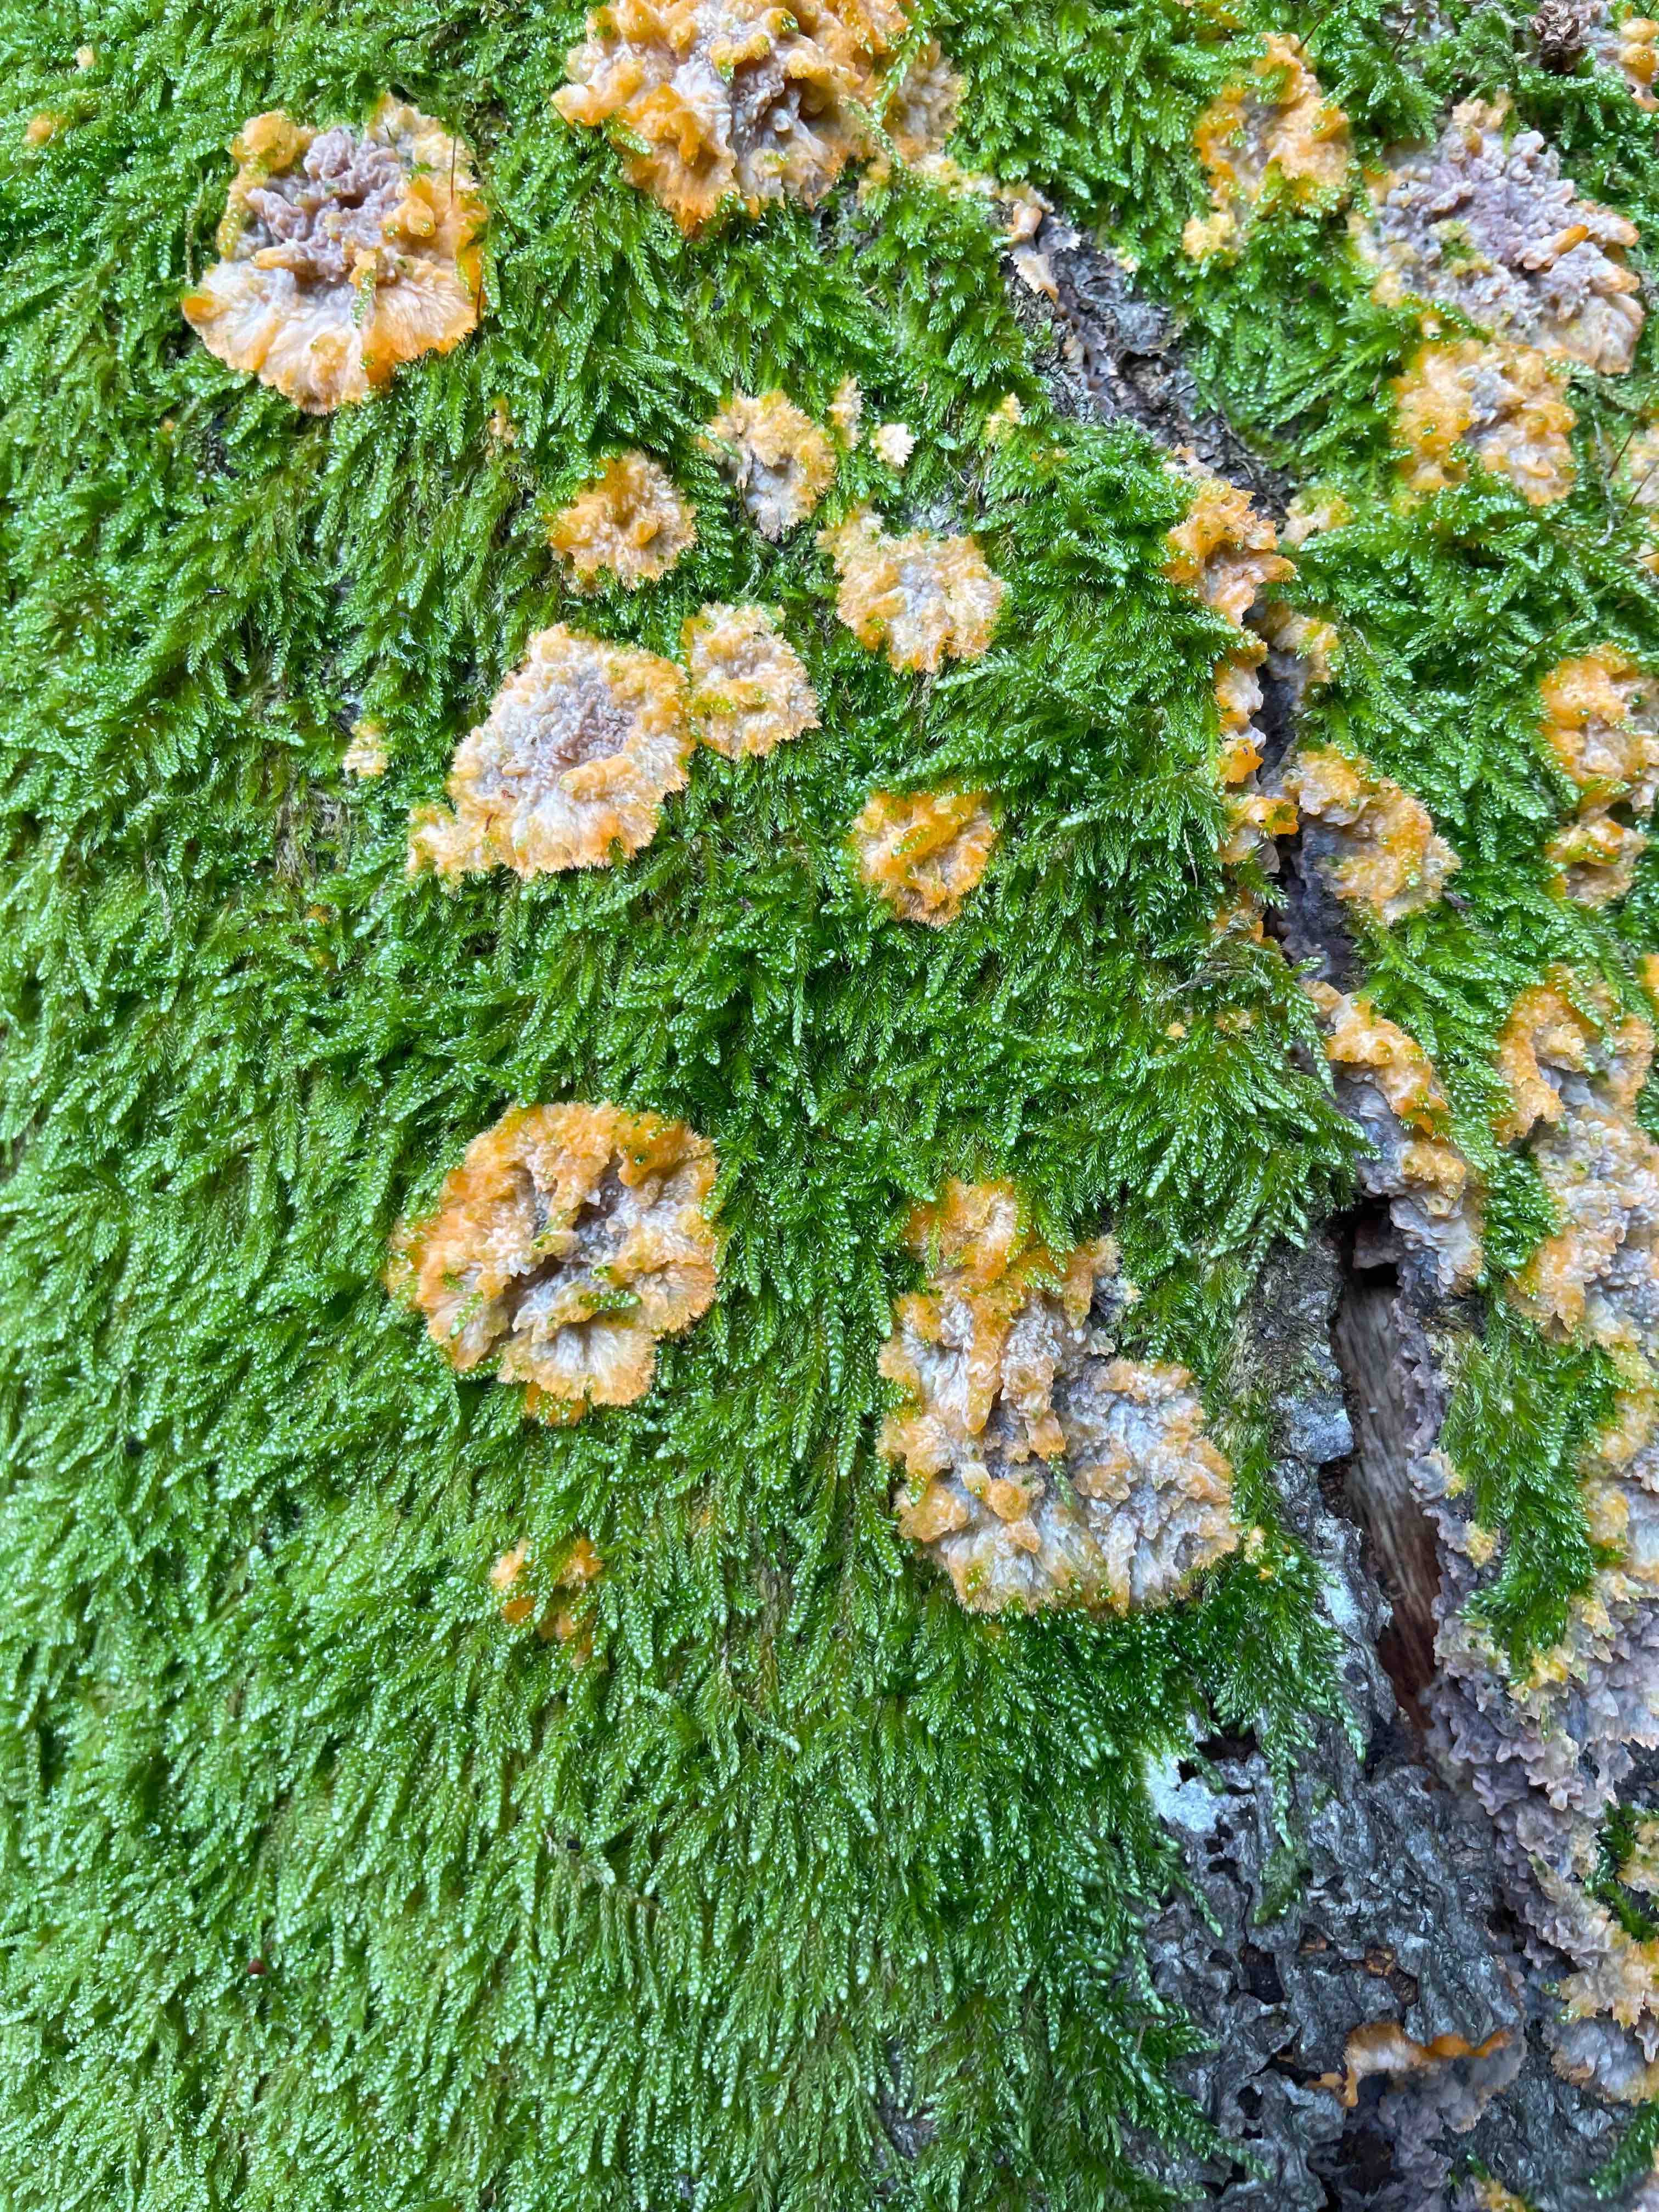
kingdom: Fungi
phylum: Basidiomycota
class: Agaricomycetes
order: Polyporales
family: Meruliaceae
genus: Phlebia
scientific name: Phlebia radiata
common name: stråle-åresvamp
